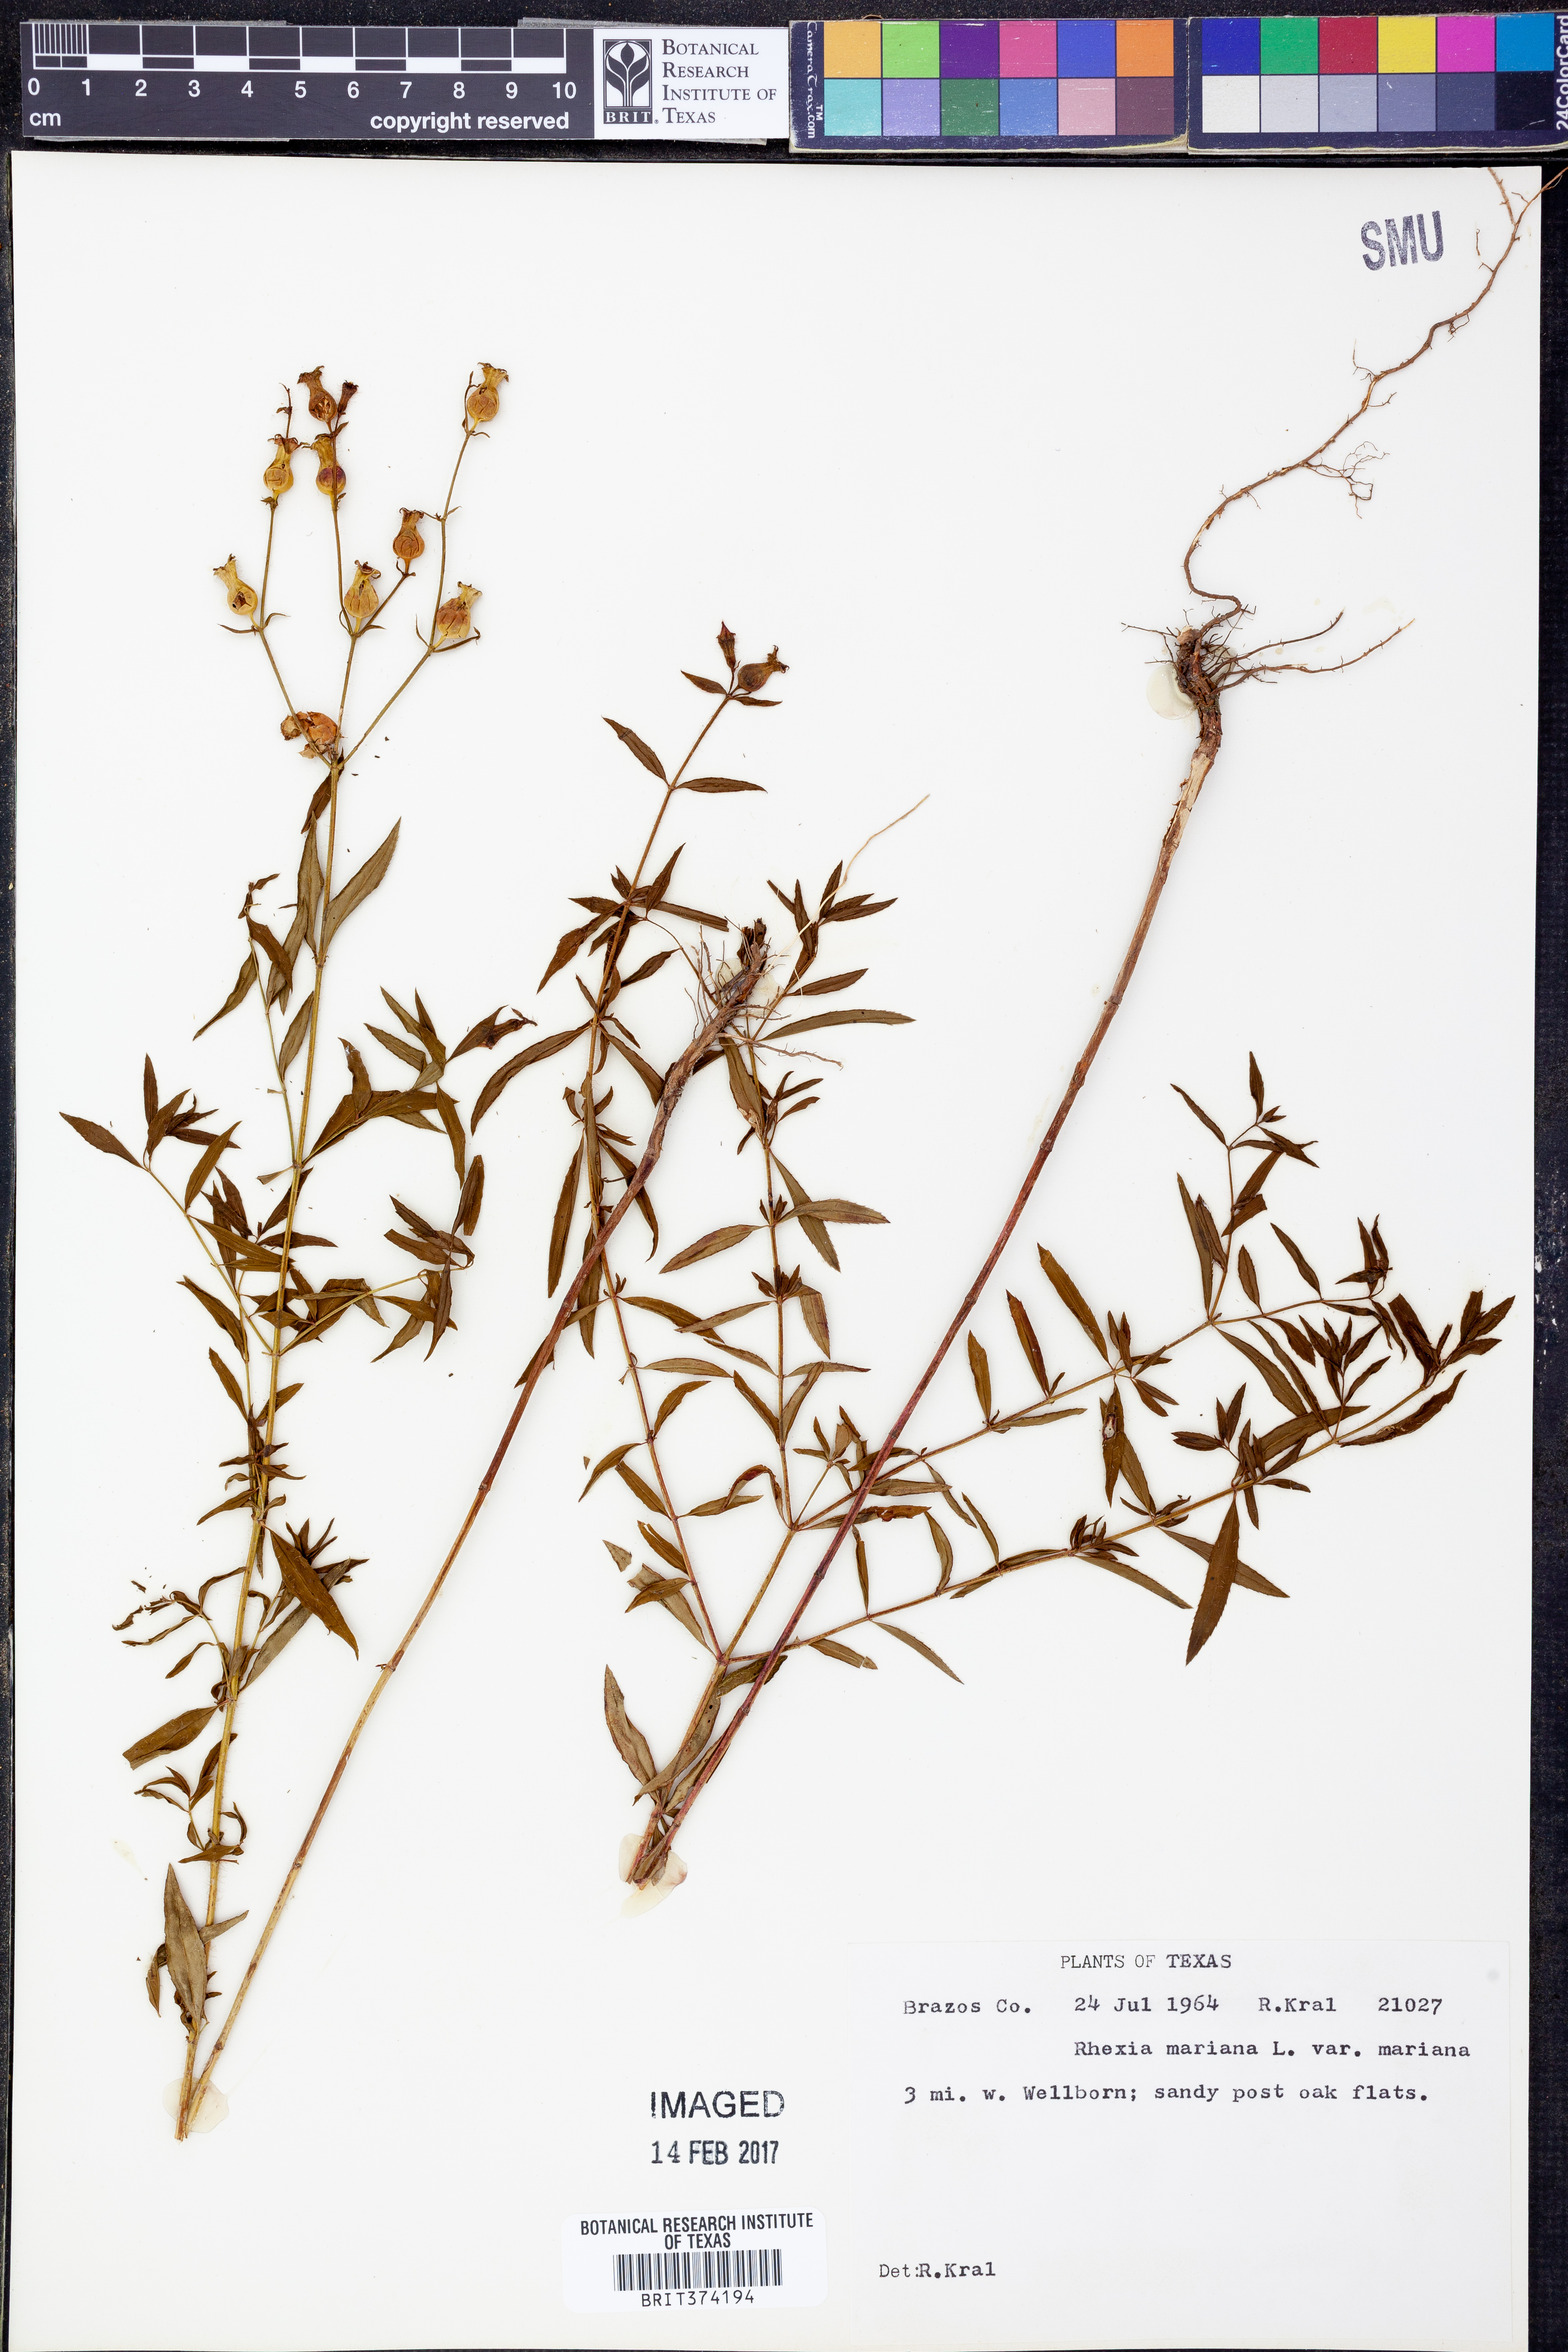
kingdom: Plantae
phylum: Tracheophyta
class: Magnoliopsida
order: Myrtales
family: Melastomataceae
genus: Rhexia
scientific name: Rhexia mariana
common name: Dull meadow-pitcher
